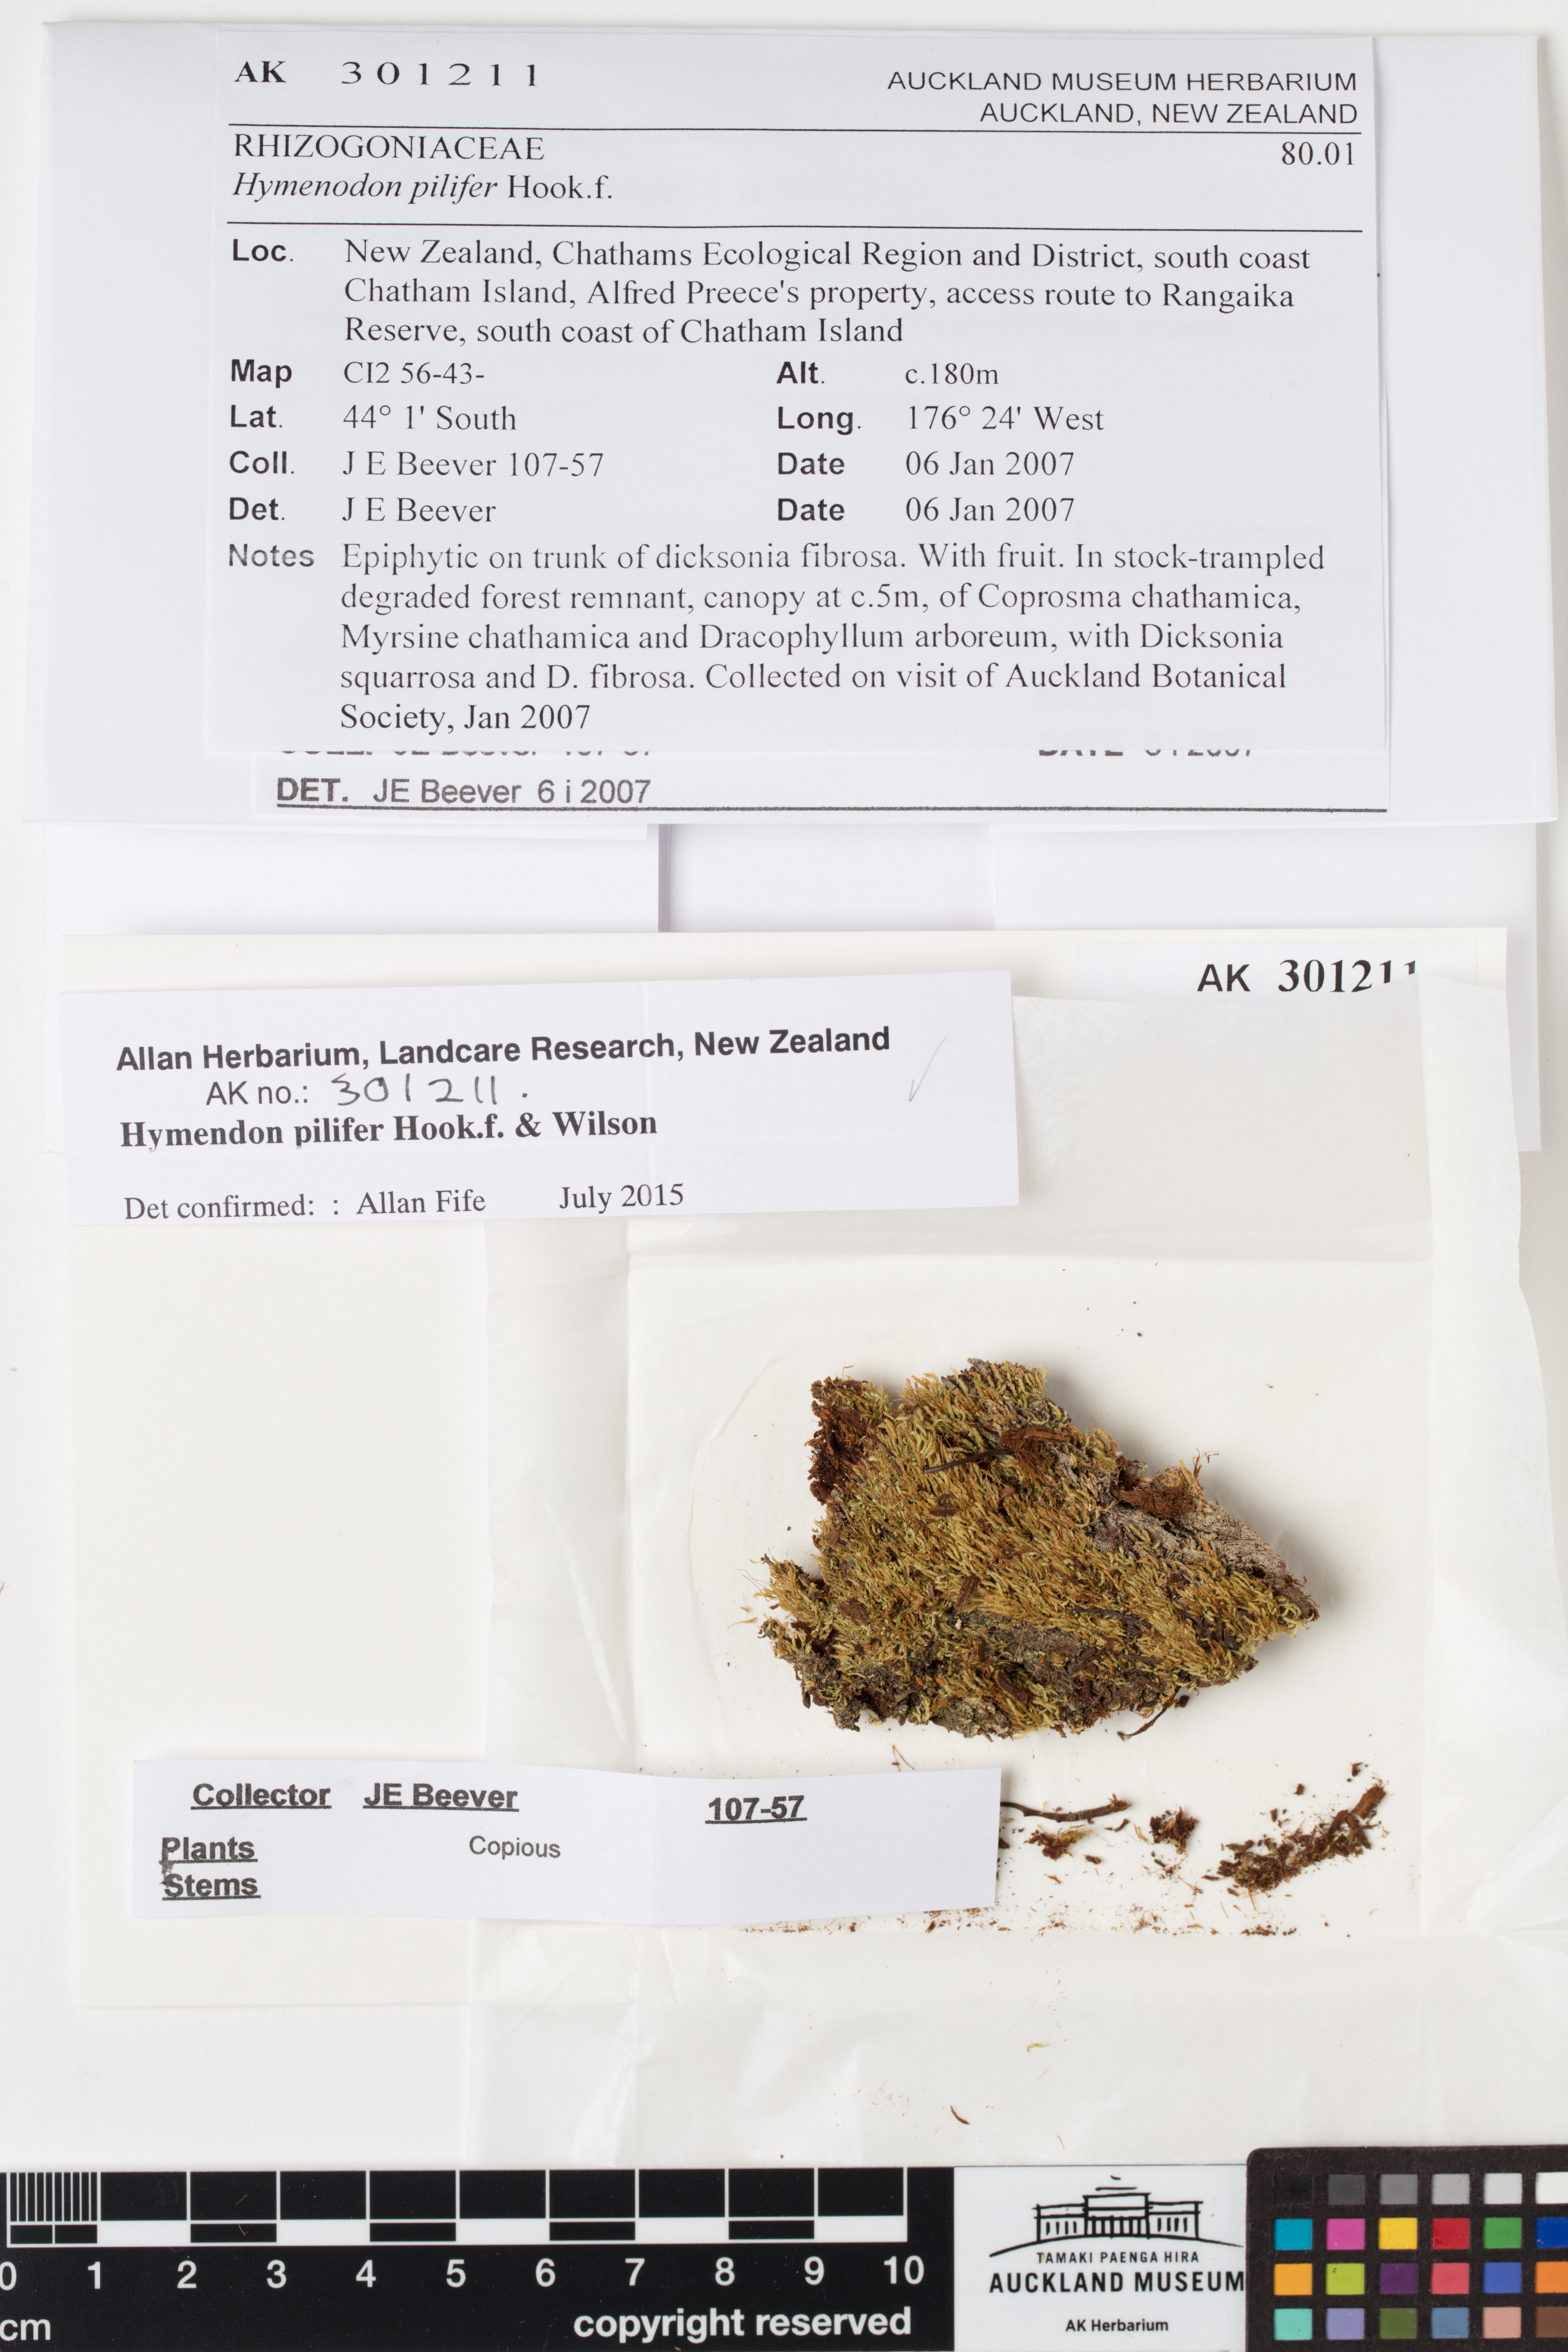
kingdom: Plantae
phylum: Bryophyta
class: Bryopsida
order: Orthodontiales
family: Orthodontiaceae
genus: Hymenodon
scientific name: Hymenodon pilifer
